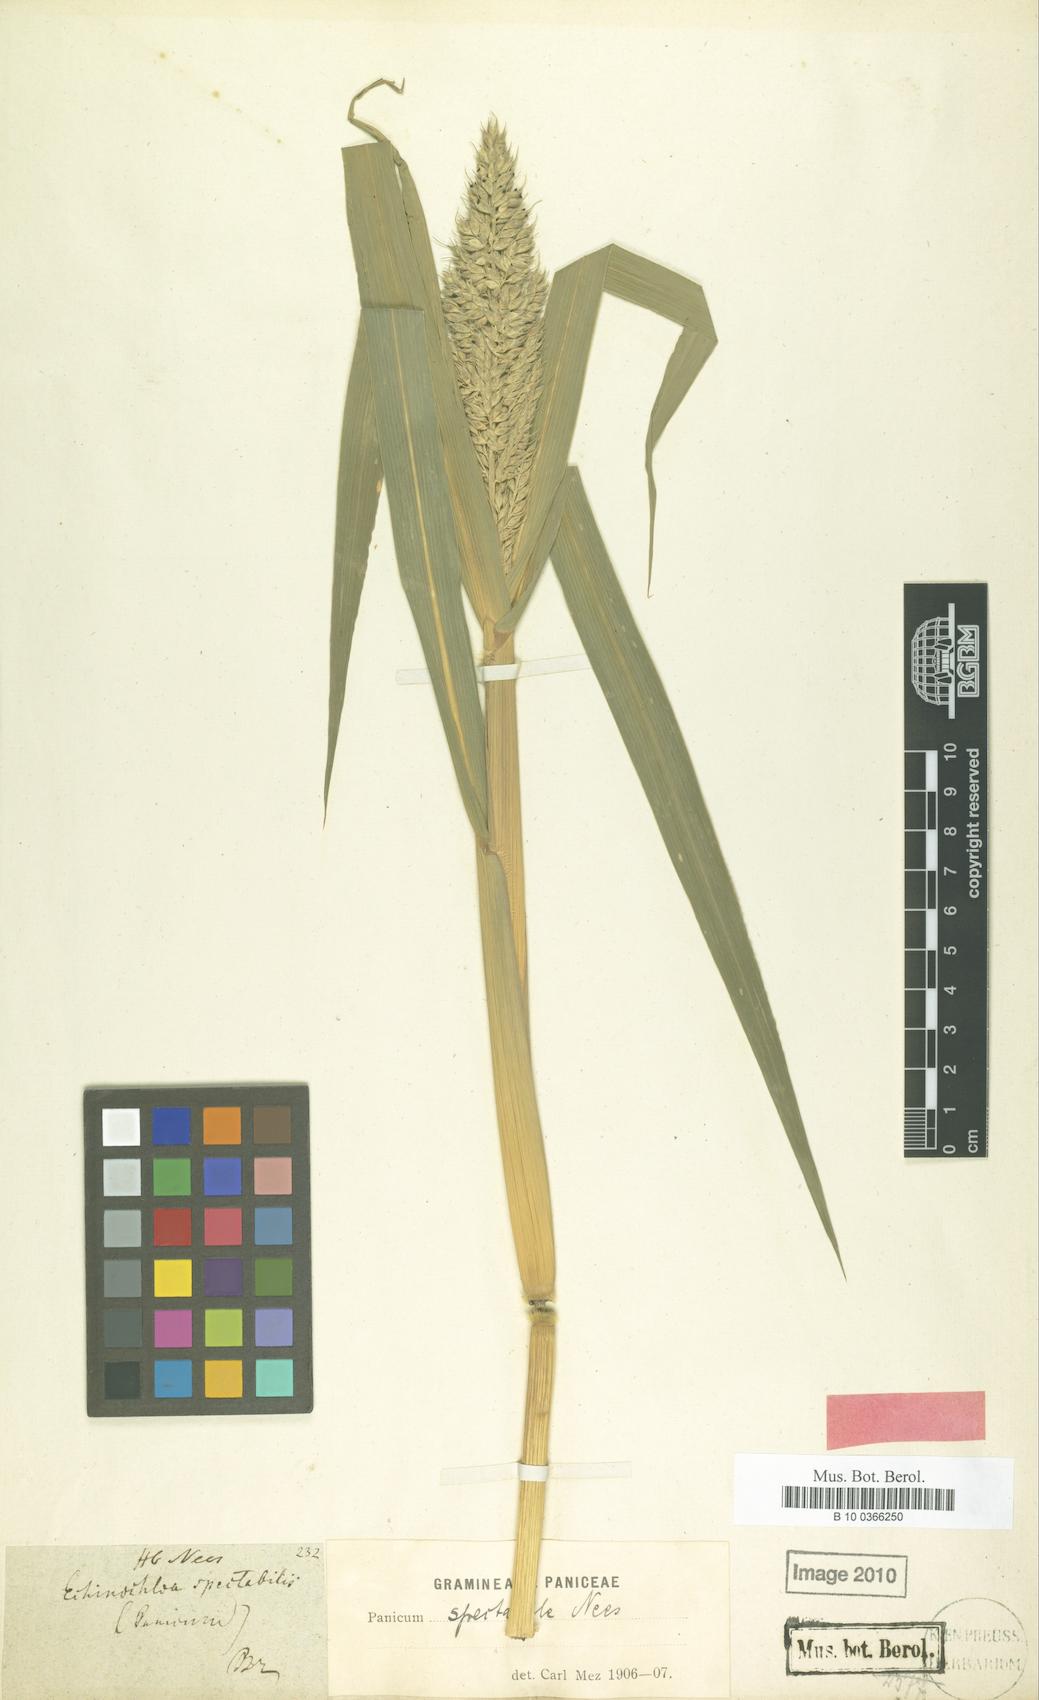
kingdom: Plantae
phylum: Tracheophyta
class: Liliopsida
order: Poales
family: Poaceae
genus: Echinochloa
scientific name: Echinochloa polystachya
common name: Creeping river grass
